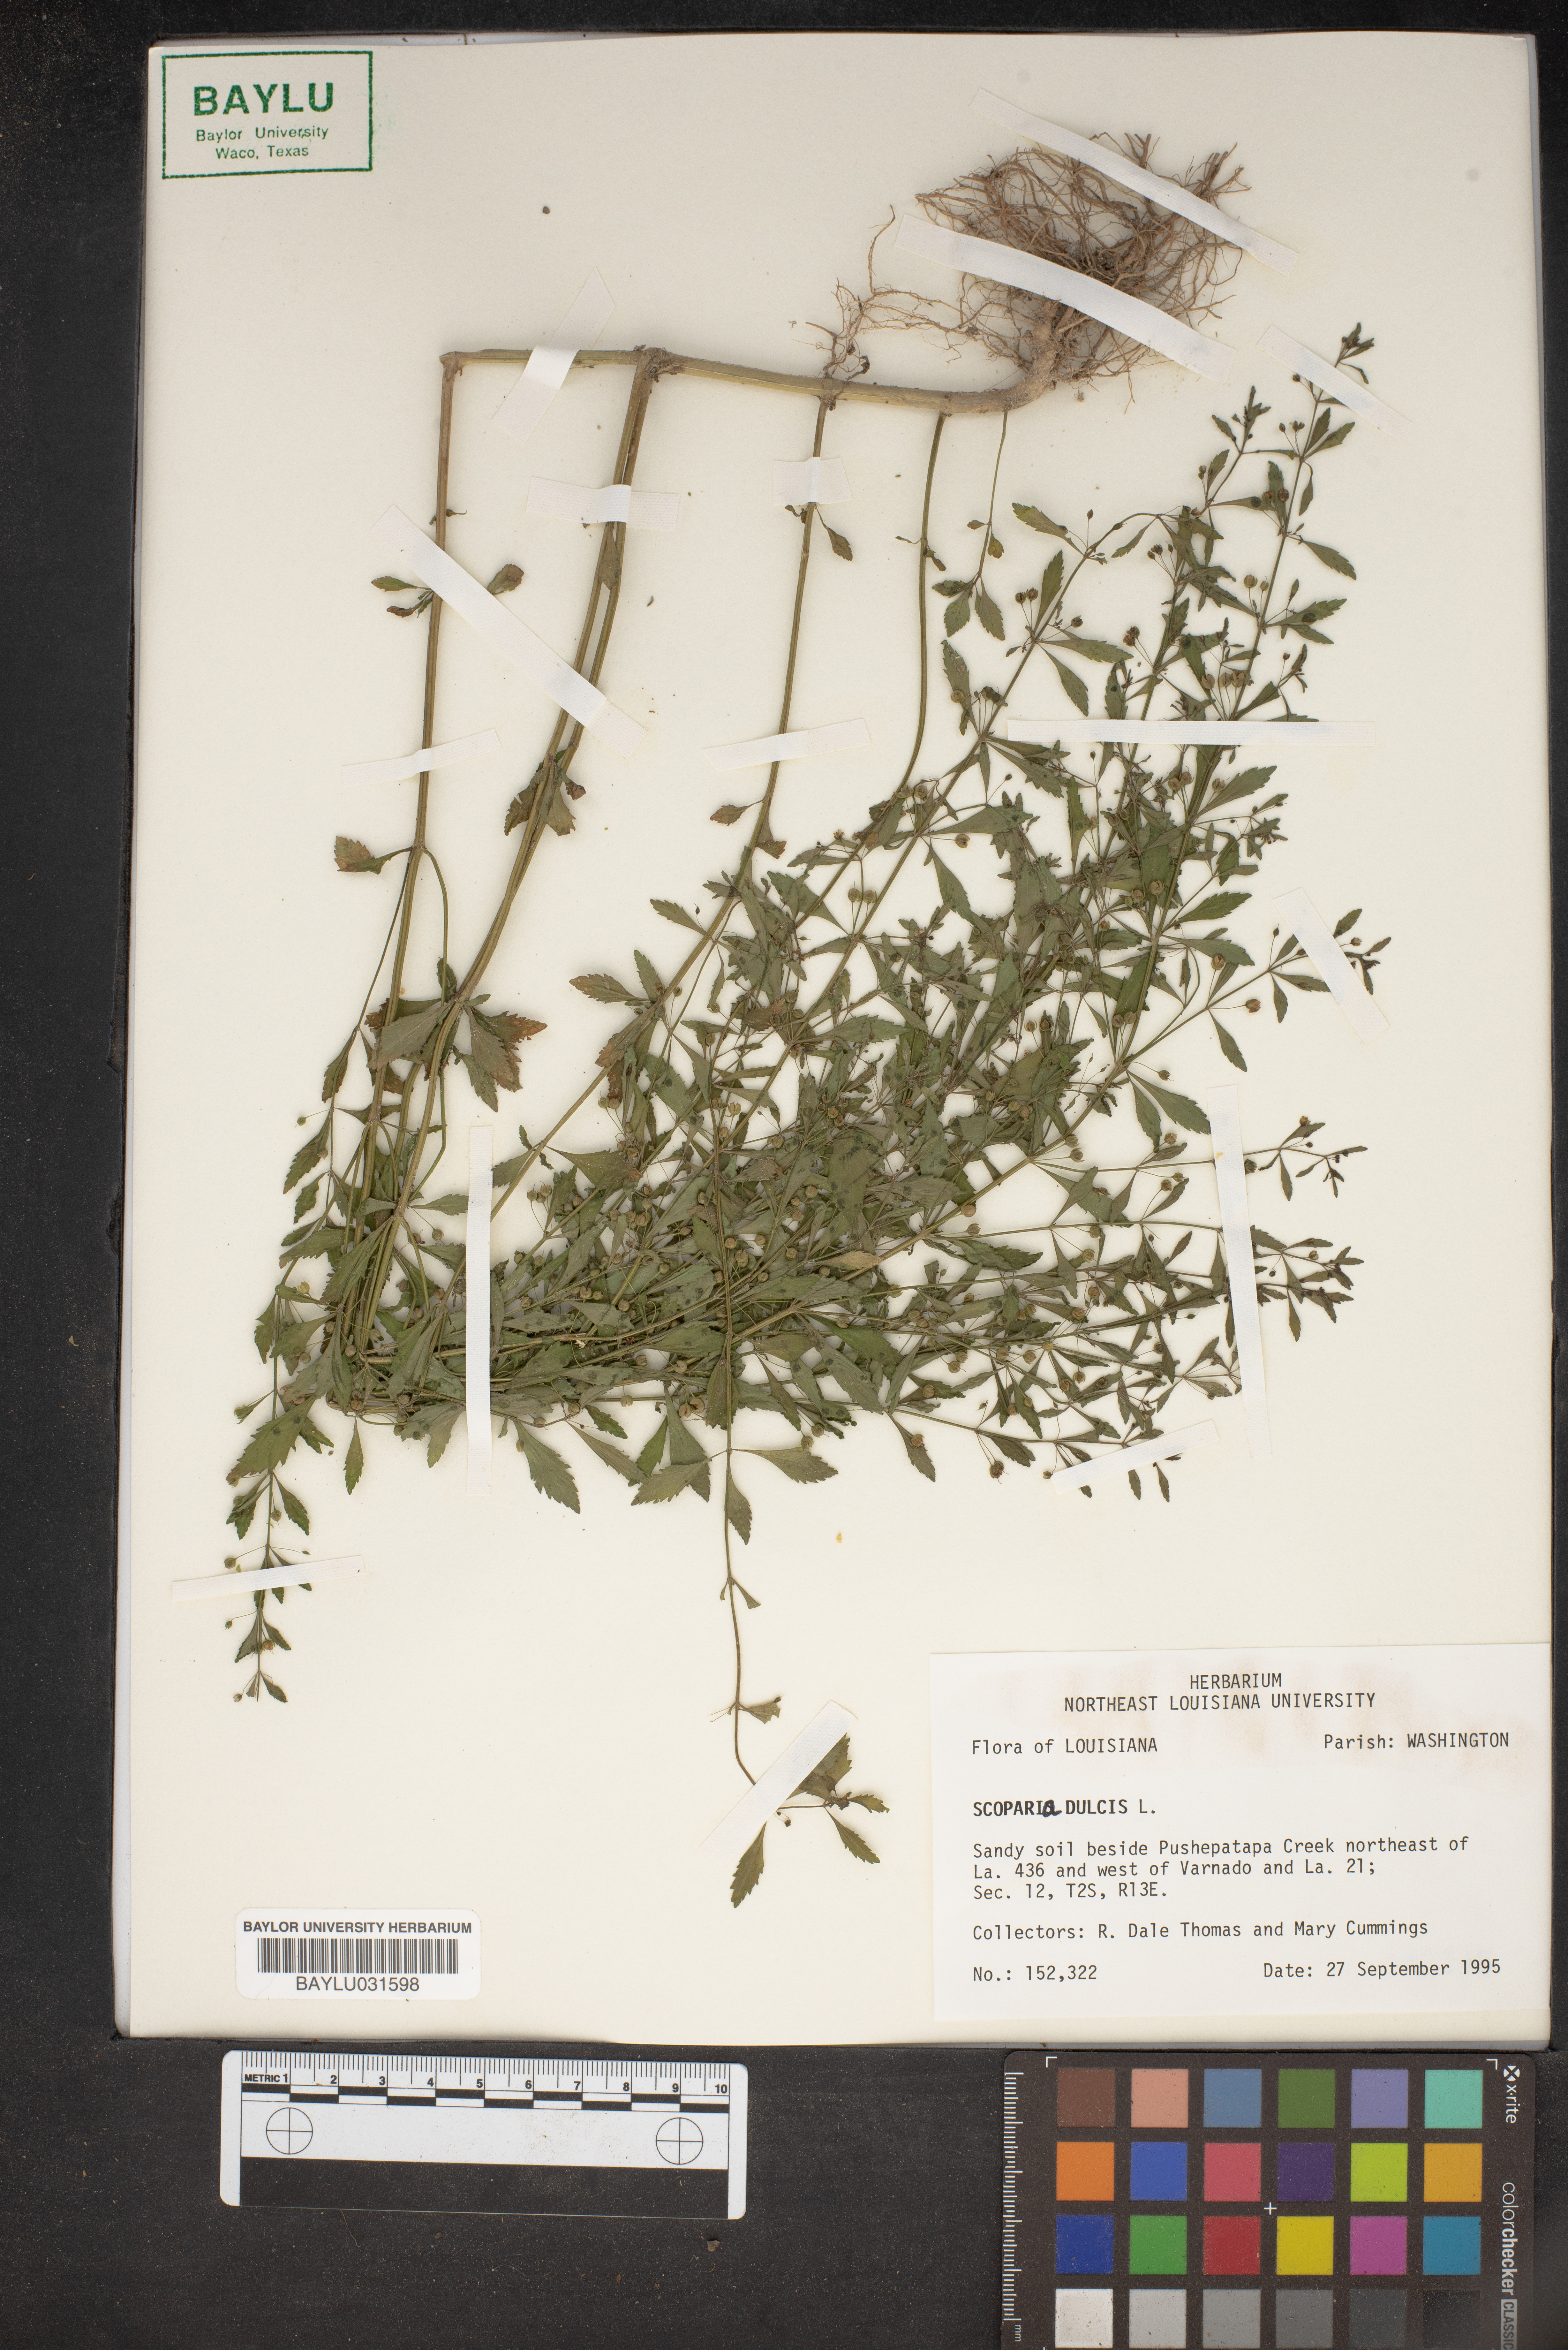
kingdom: Plantae
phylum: Tracheophyta
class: Magnoliopsida
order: Lamiales
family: Plantaginaceae
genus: Scoparia
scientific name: Scoparia dulcis
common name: Scoparia-weed
